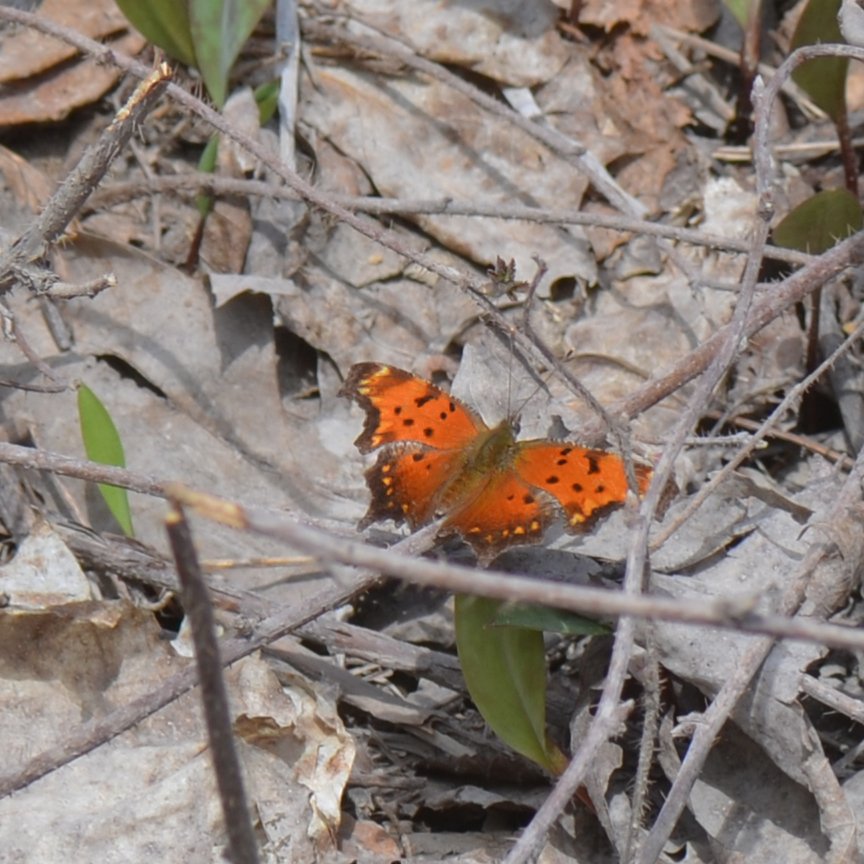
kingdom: Animalia
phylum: Arthropoda
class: Insecta
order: Lepidoptera
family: Nymphalidae
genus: Polygonia
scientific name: Polygonia progne
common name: Gray Comma
